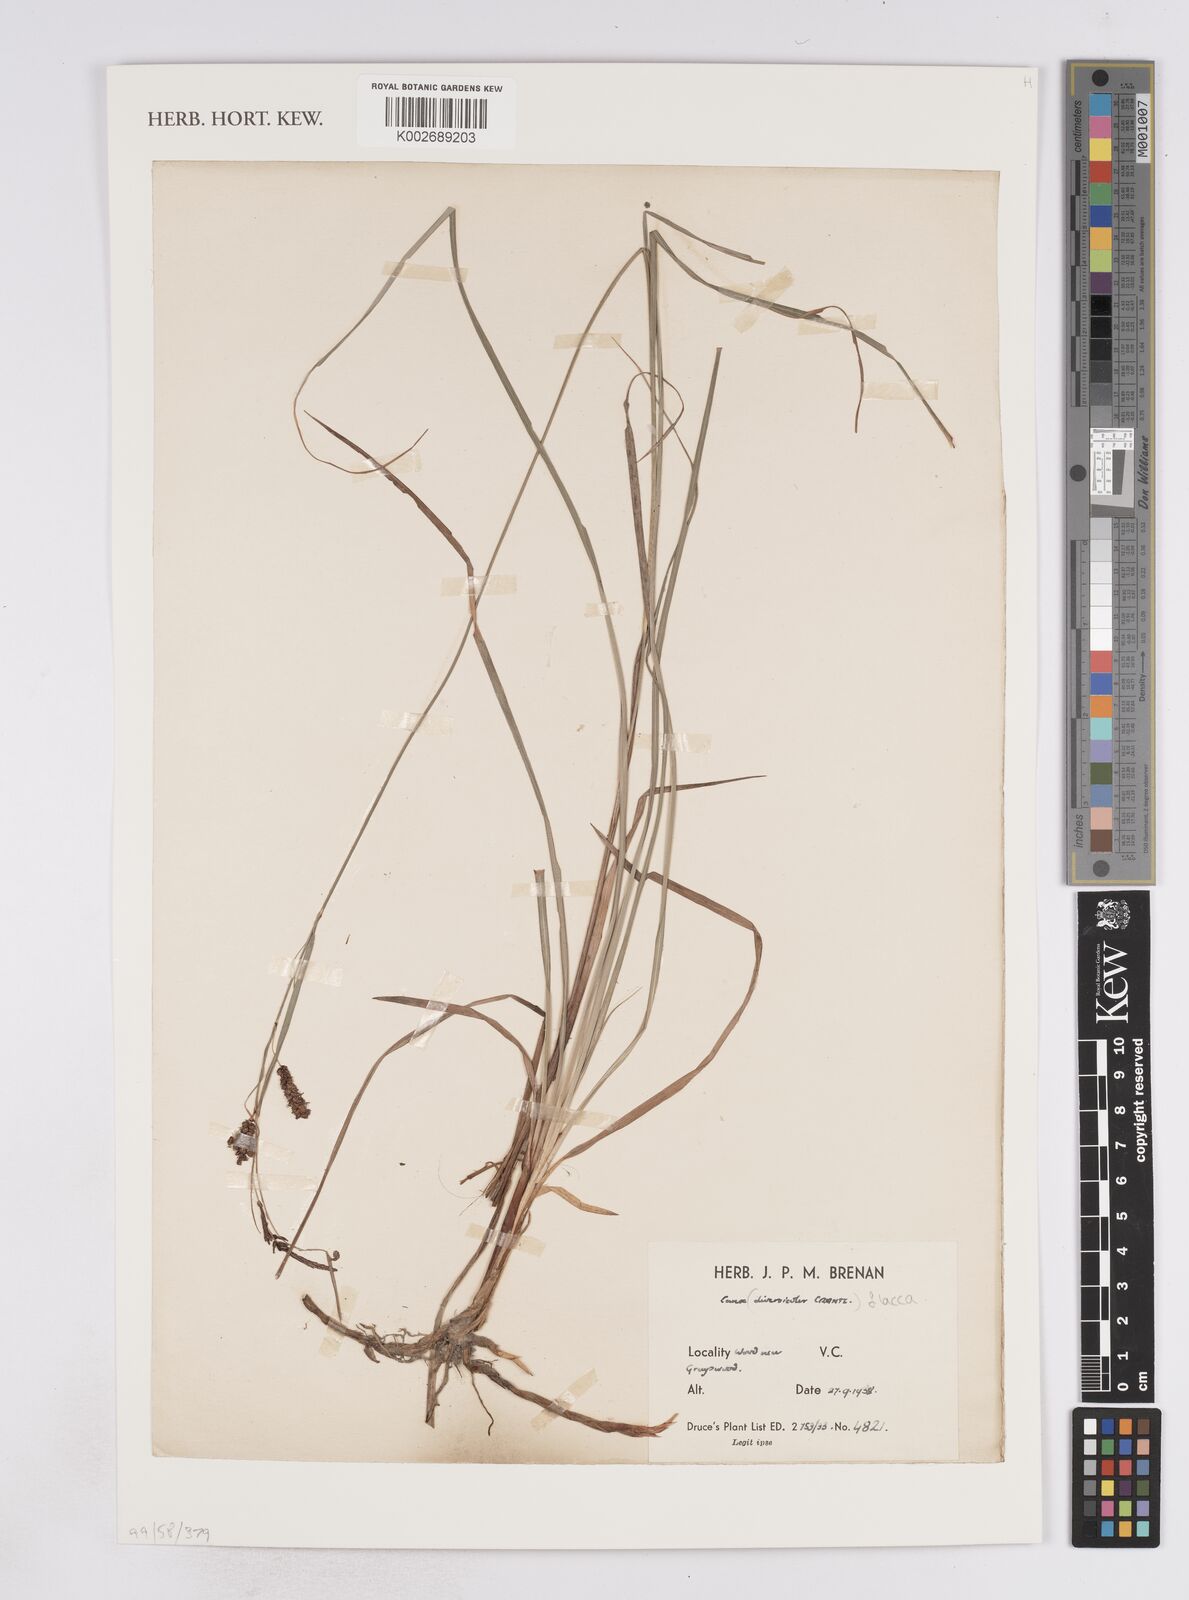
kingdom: Plantae
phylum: Tracheophyta
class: Liliopsida
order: Poales
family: Cyperaceae
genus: Carex
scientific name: Carex flacca
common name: Glaucous sedge
